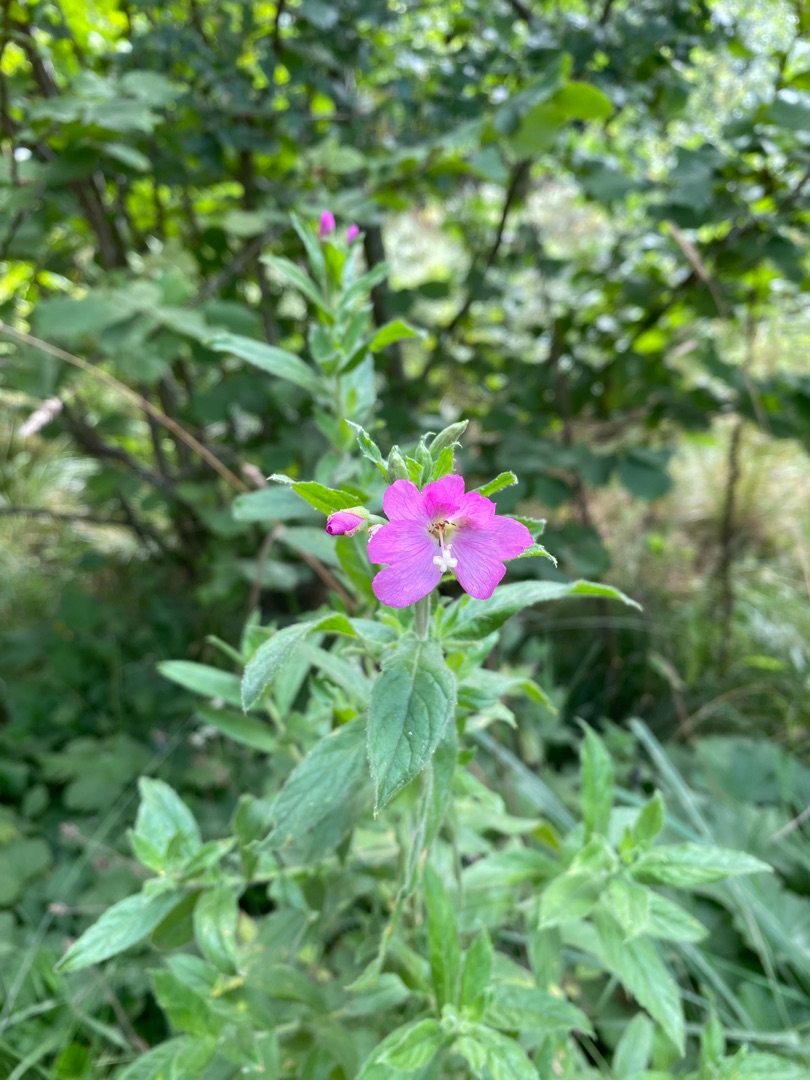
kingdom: Plantae
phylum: Tracheophyta
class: Magnoliopsida
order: Myrtales
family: Onagraceae
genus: Epilobium
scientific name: Epilobium hirsutum
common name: Lådden dueurt
